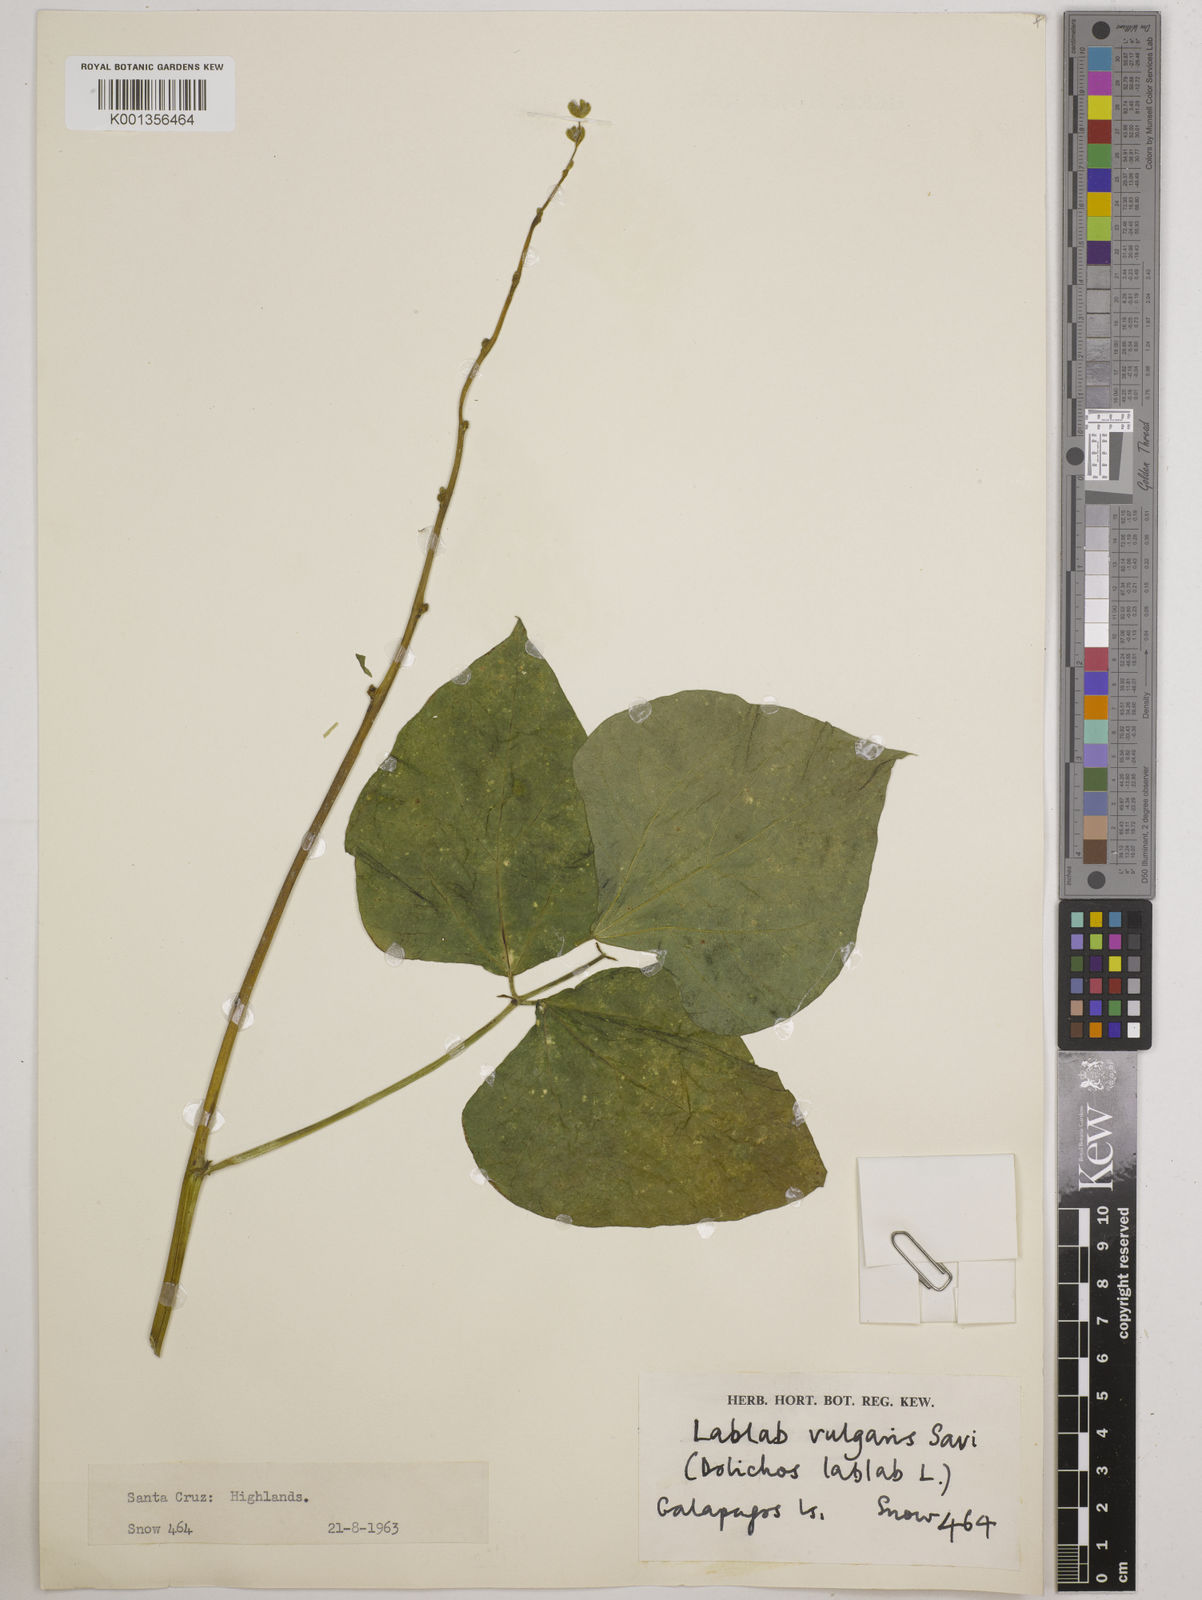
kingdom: Plantae
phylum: Tracheophyta
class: Magnoliopsida
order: Fabales
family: Fabaceae
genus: Lablab
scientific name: Lablab purpureus
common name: Lablab-bean
